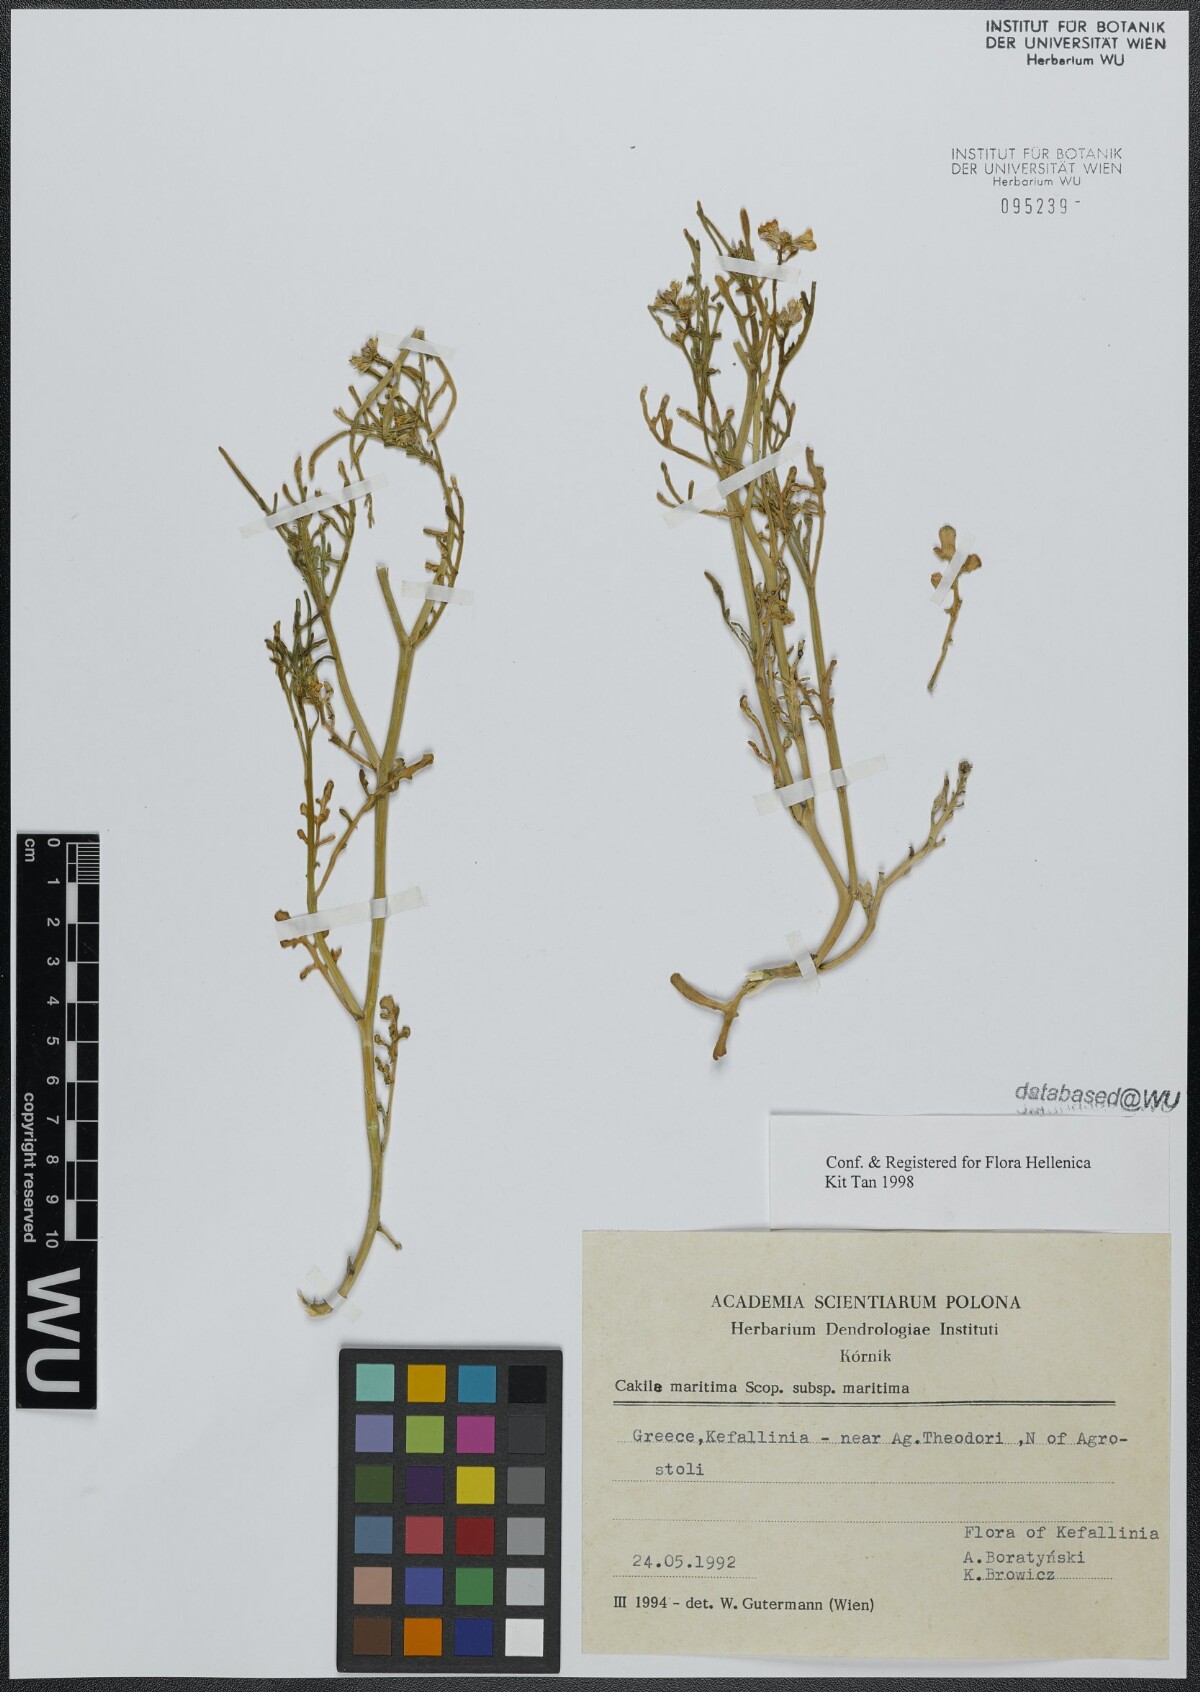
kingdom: Plantae
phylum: Tracheophyta
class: Magnoliopsida
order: Brassicales
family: Brassicaceae
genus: Cakile
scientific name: Cakile maritima
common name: Sea rocket
